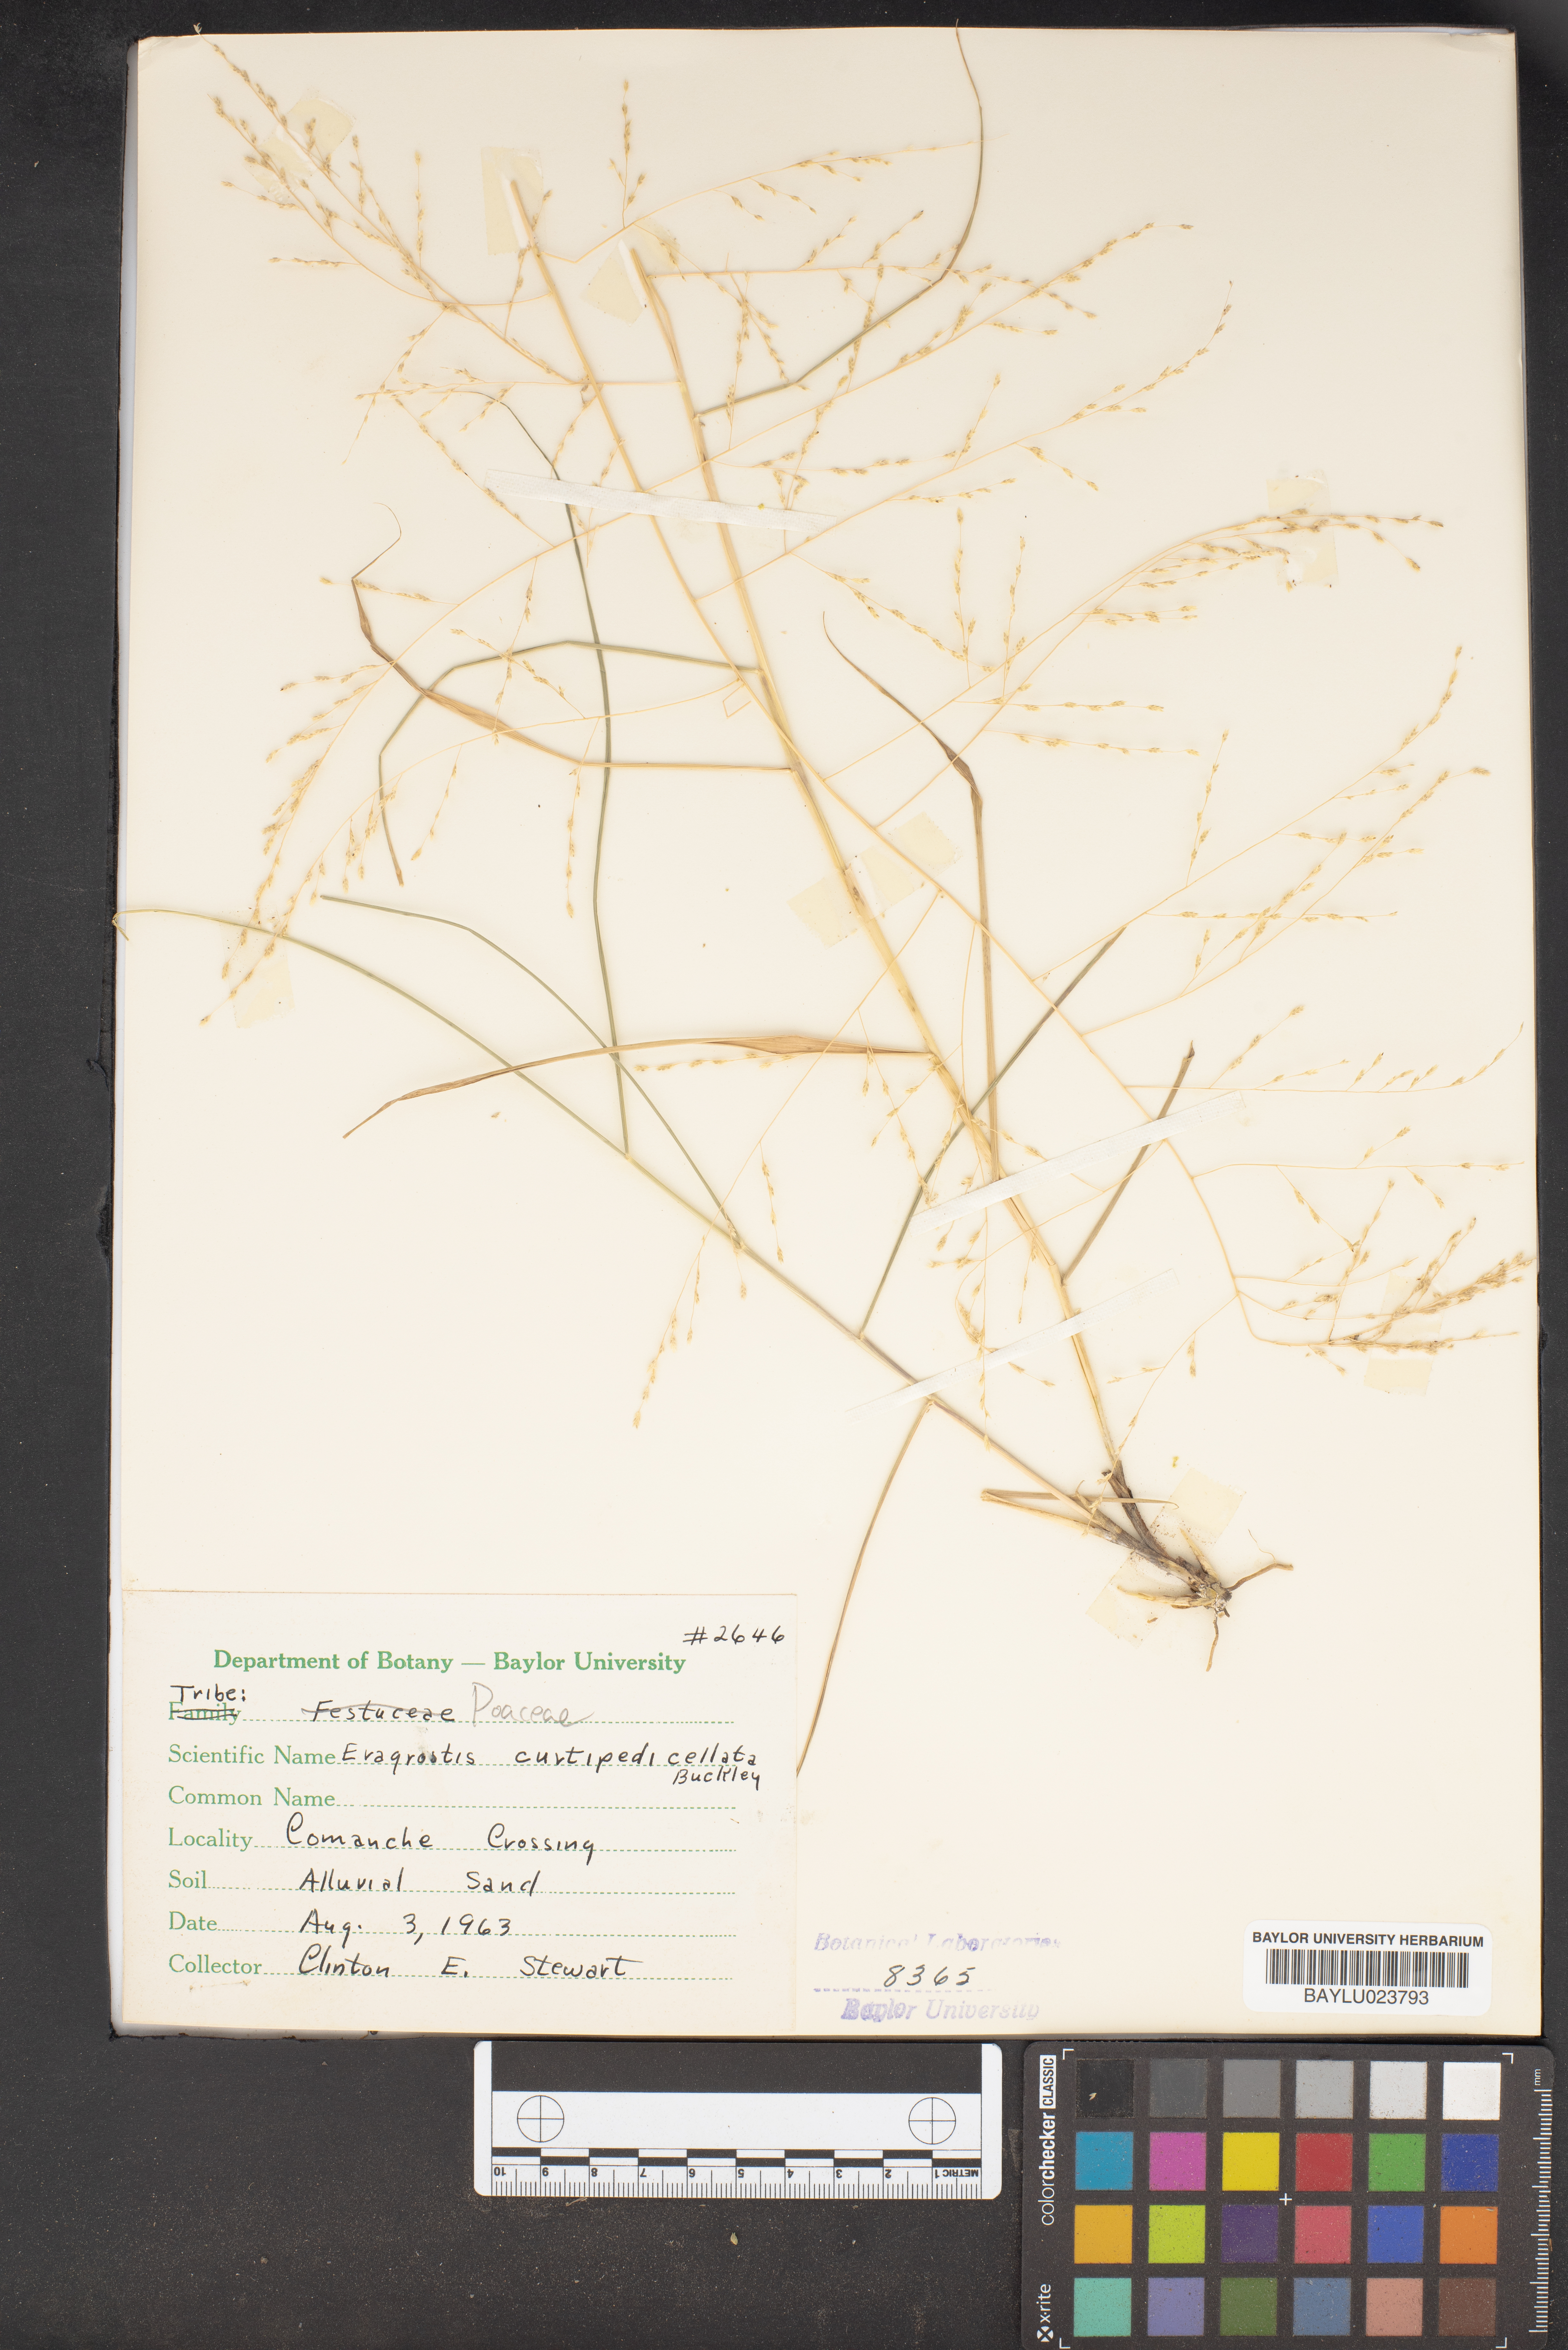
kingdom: Plantae
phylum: Tracheophyta
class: Liliopsida
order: Poales
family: Poaceae
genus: Eragrostis
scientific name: Eragrostis curtipedicellata
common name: Gummy love grass
